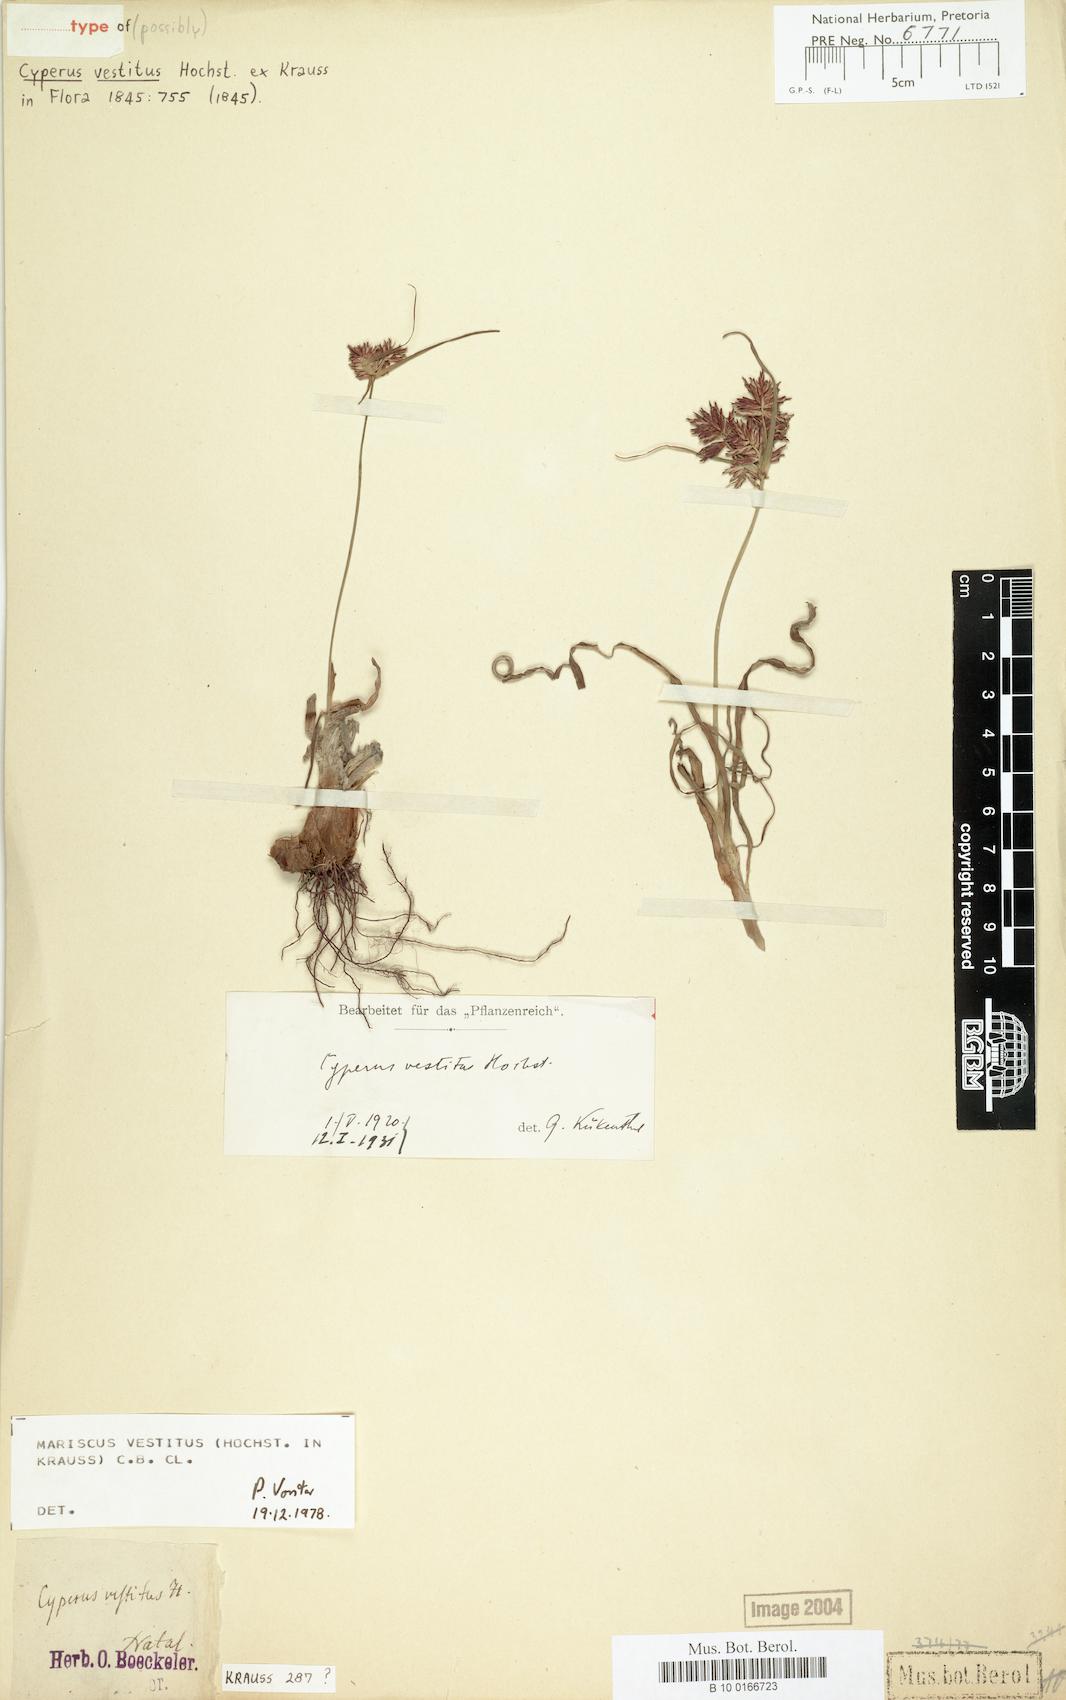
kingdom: Plantae
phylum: Tracheophyta
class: Liliopsida
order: Poales
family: Cyperaceae
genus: Cyperus
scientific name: Cyperus vestitus
